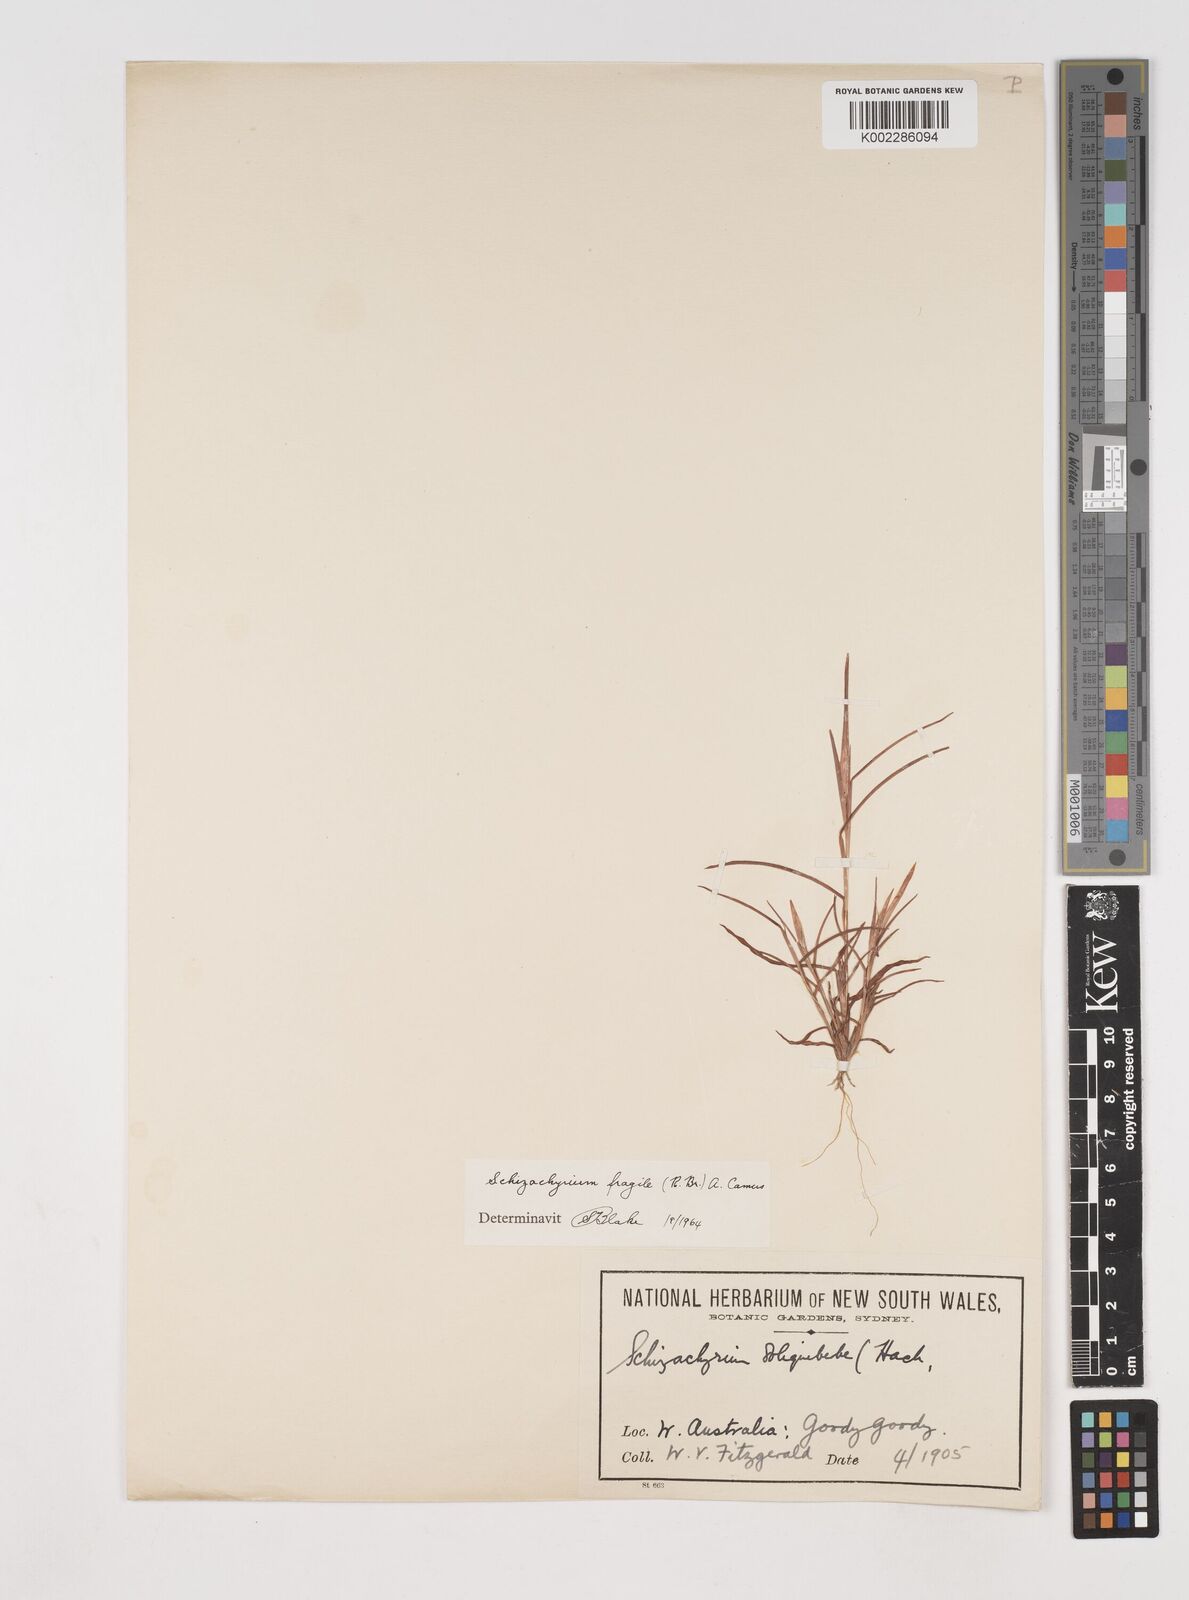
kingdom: Plantae
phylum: Tracheophyta
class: Liliopsida
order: Poales
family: Poaceae
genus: Schizachyrium
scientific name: Schizachyrium fragile
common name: Red spathe grass
